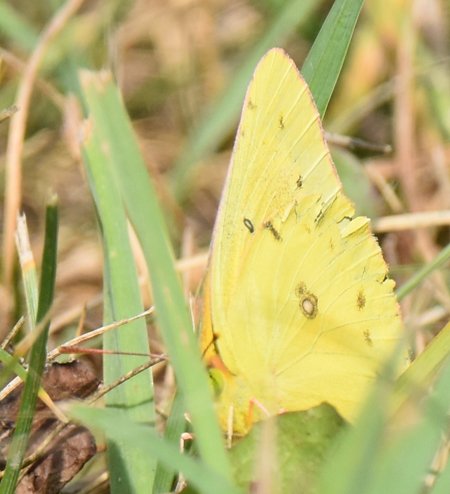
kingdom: Animalia
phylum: Arthropoda
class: Insecta
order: Lepidoptera
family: Pieridae
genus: Colias
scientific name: Colias eurytheme
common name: Orange Sulphur
